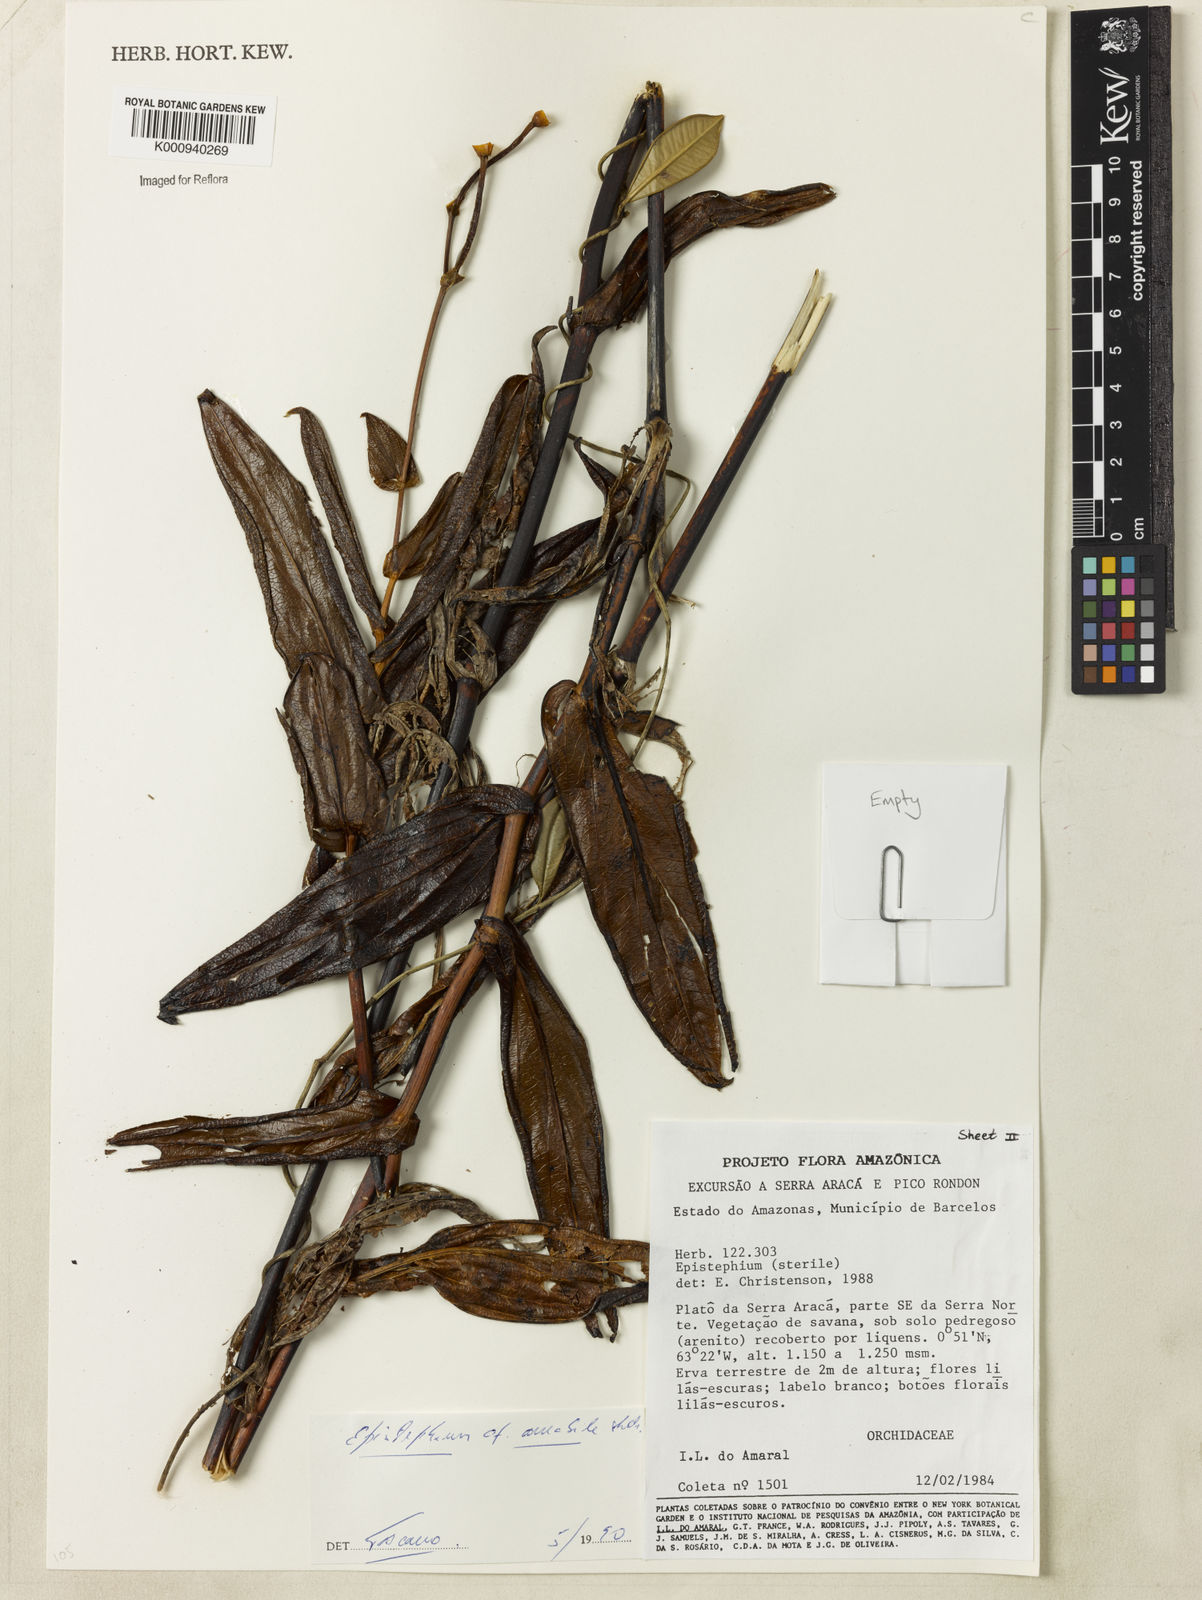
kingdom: Plantae
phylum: Tracheophyta
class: Liliopsida
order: Asparagales
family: Orchidaceae
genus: Epistephium
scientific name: Epistephium amabile
